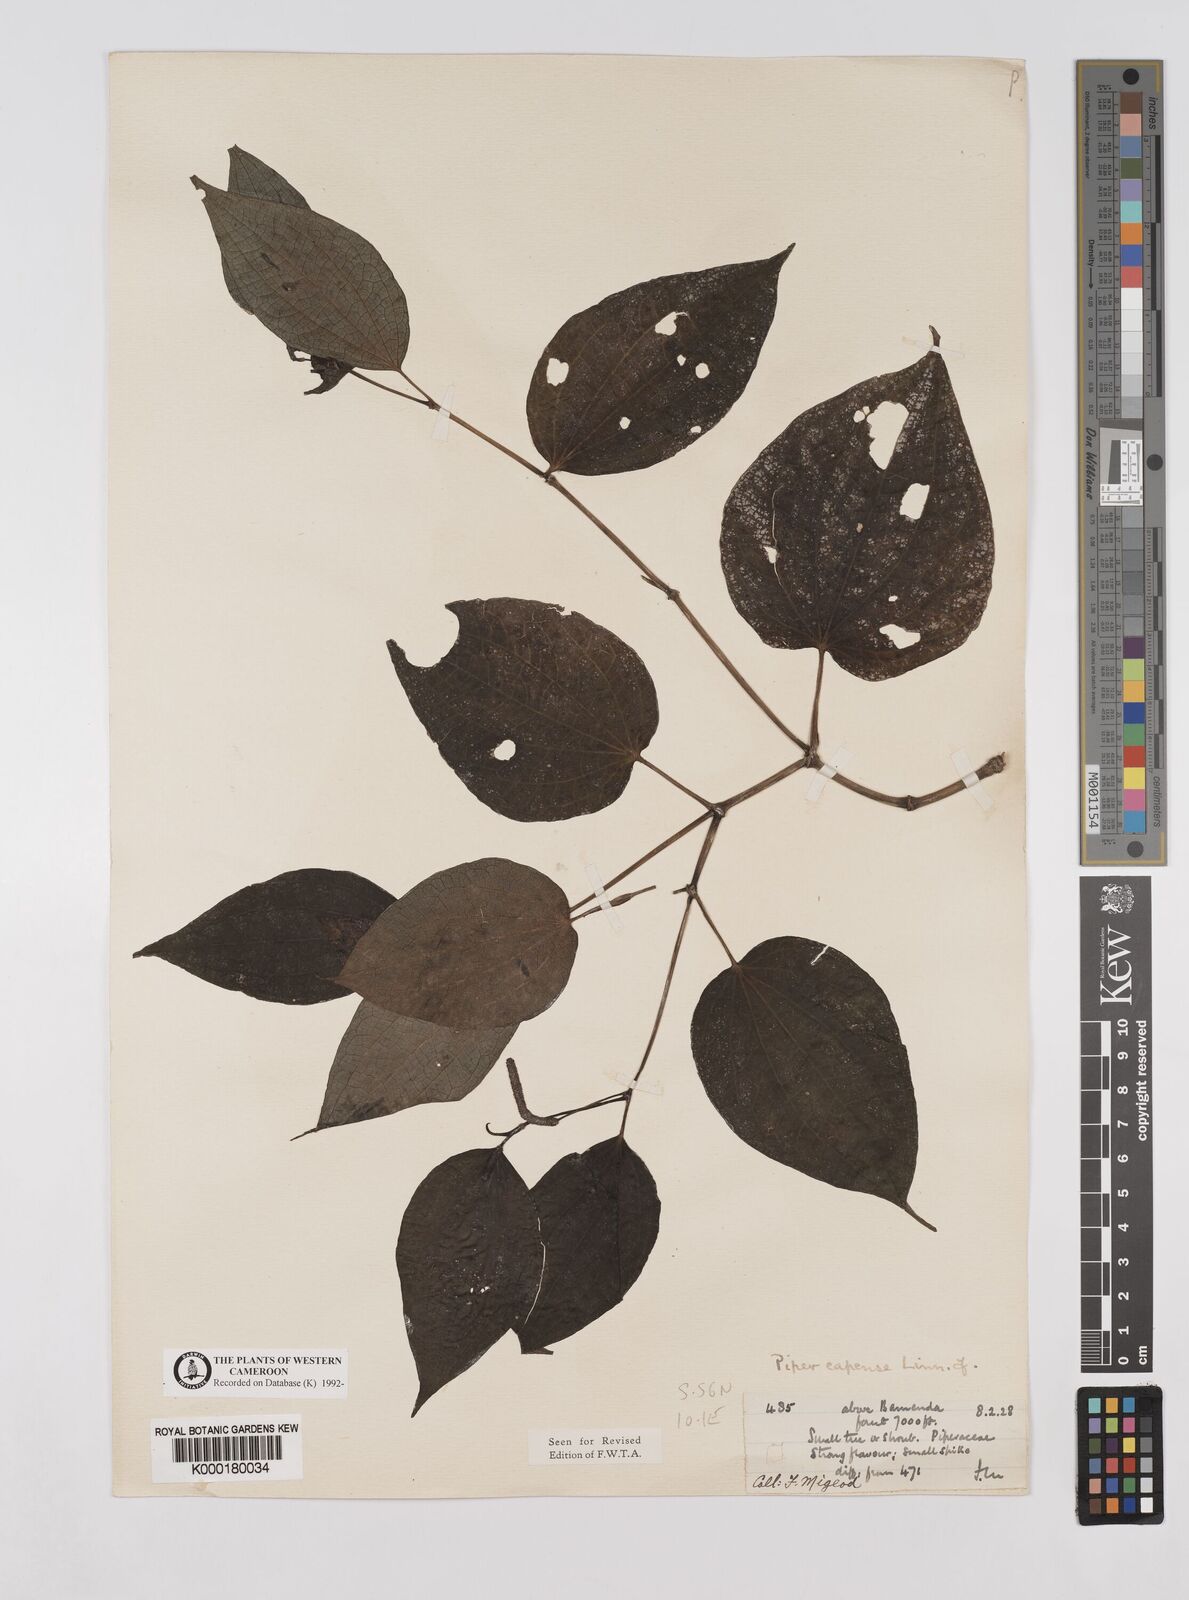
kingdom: Plantae
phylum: Tracheophyta
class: Magnoliopsida
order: Piperales
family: Piperaceae
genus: Piper
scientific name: Piper capense
